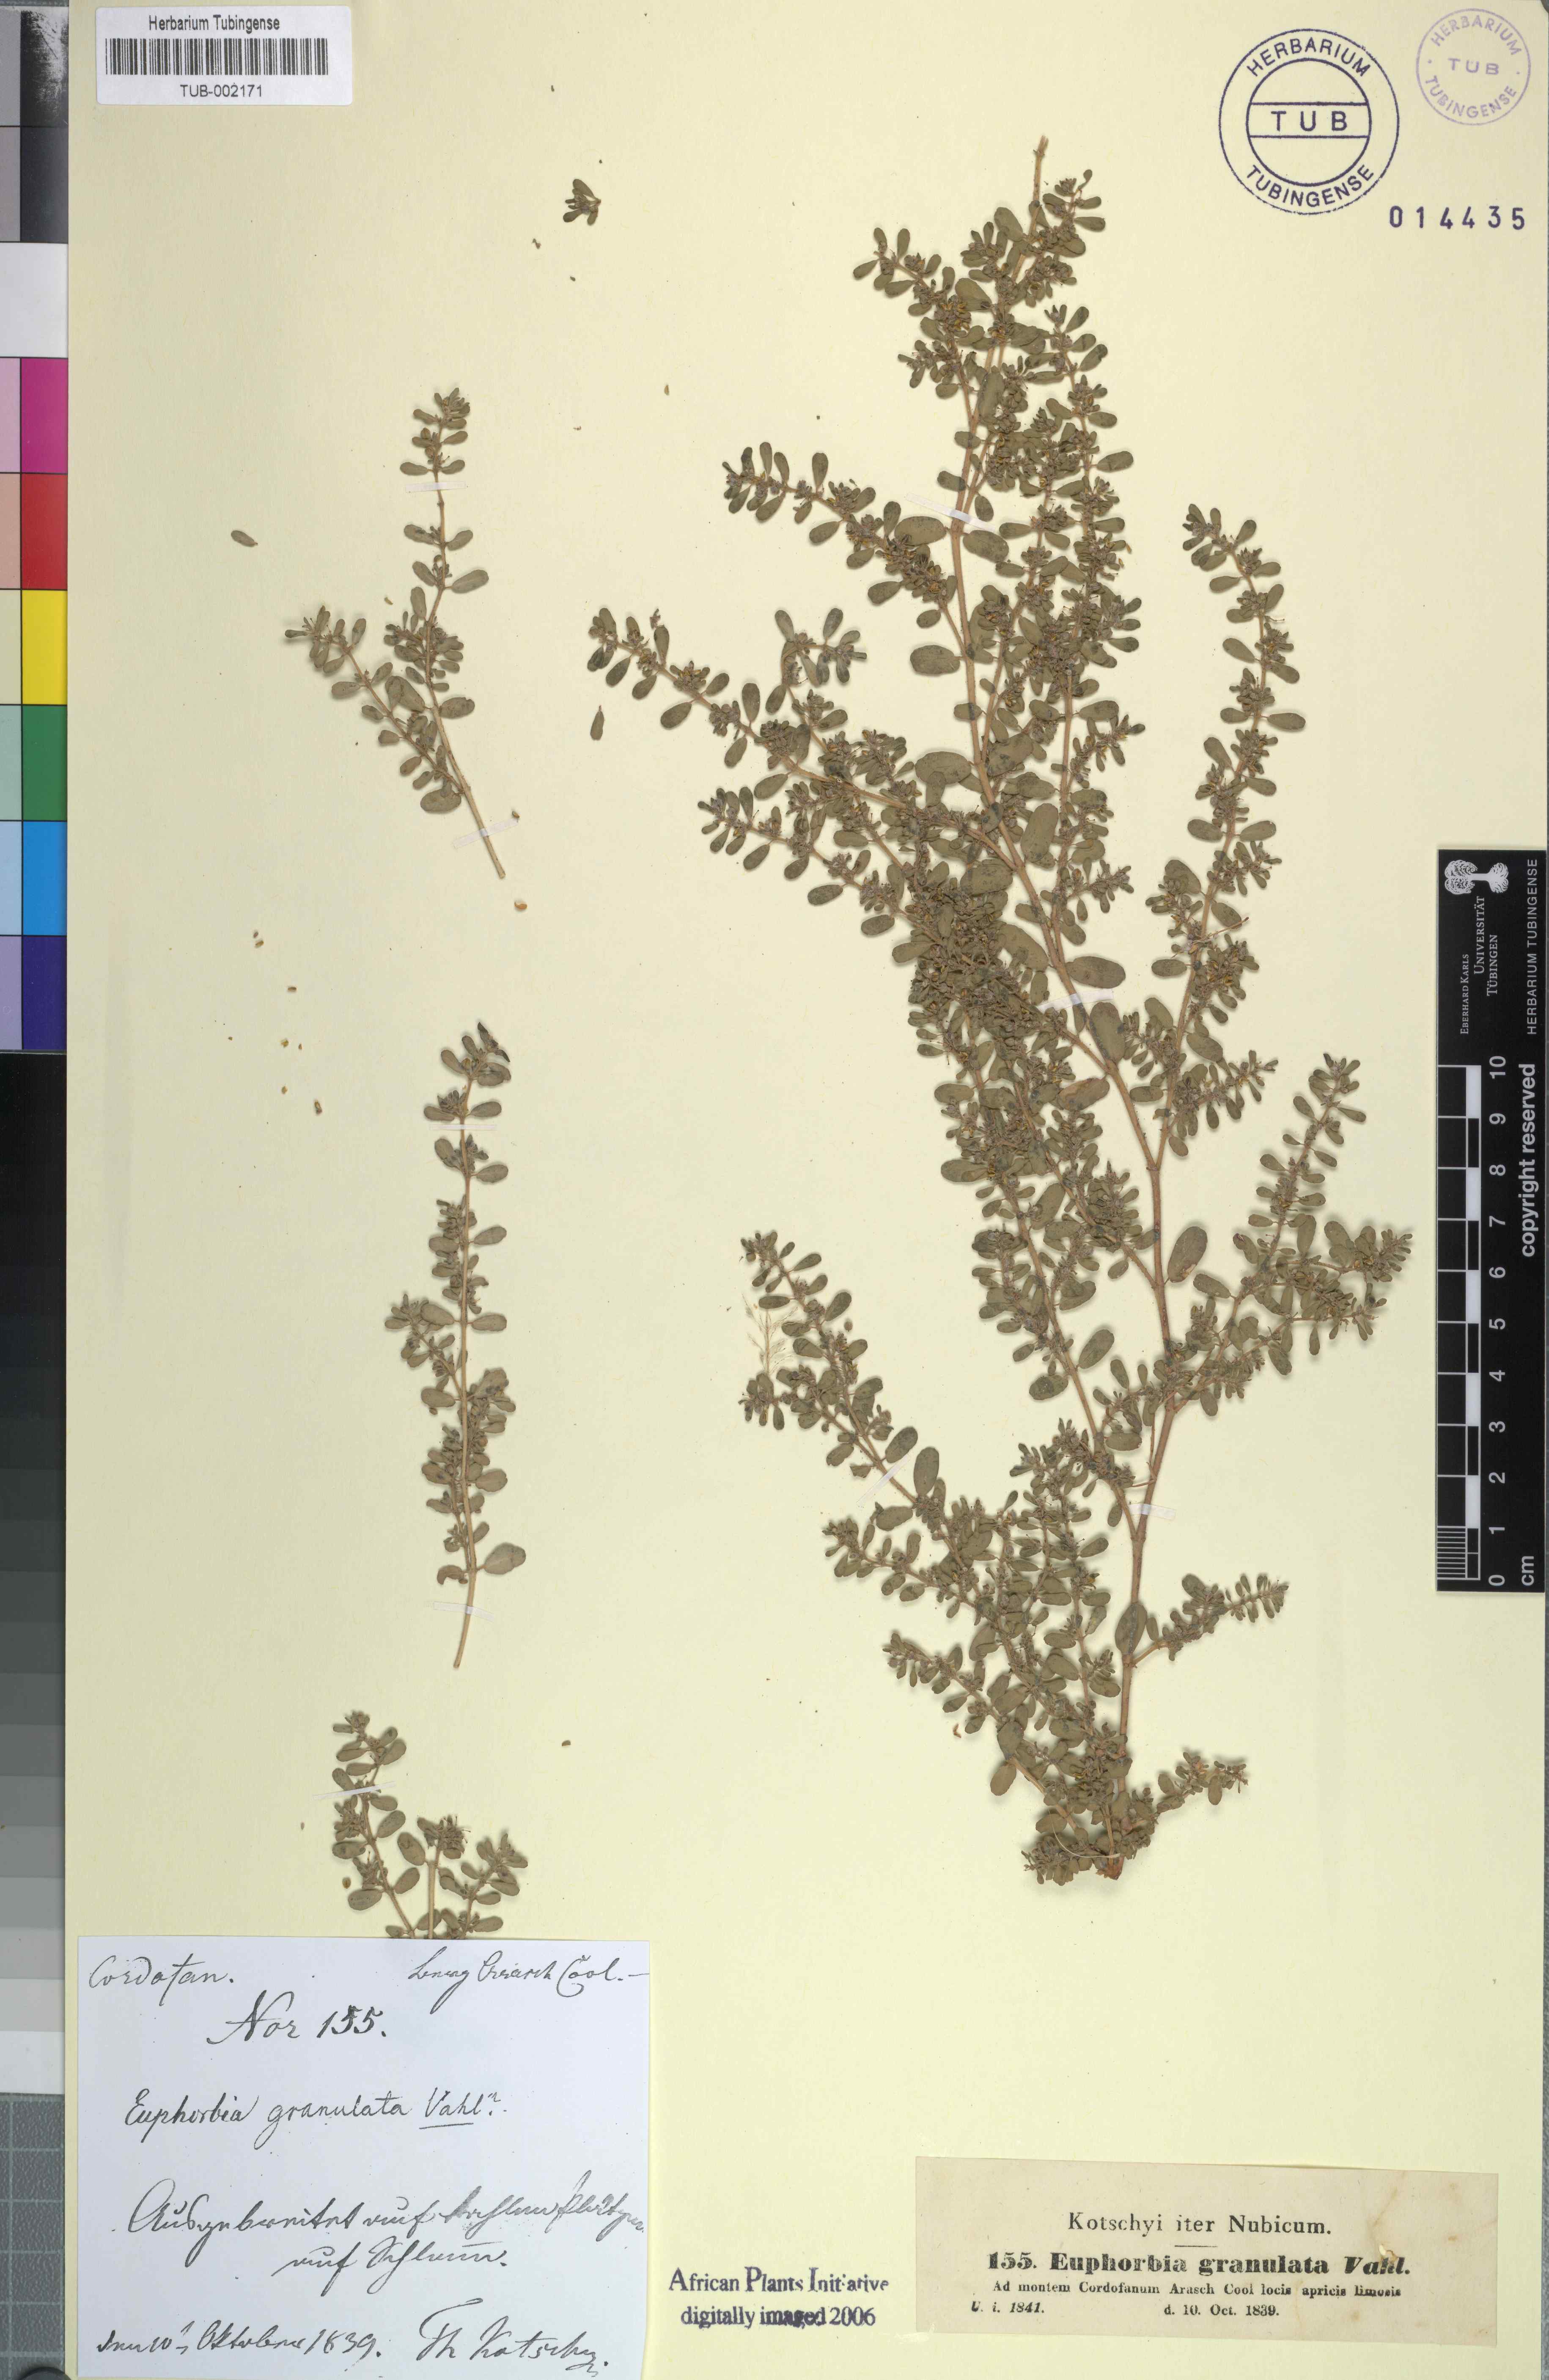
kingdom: Plantae
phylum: Tracheophyta
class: Magnoliopsida
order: Malpighiales
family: Euphorbiaceae
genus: Euphorbia
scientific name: Euphorbia forsskalii
